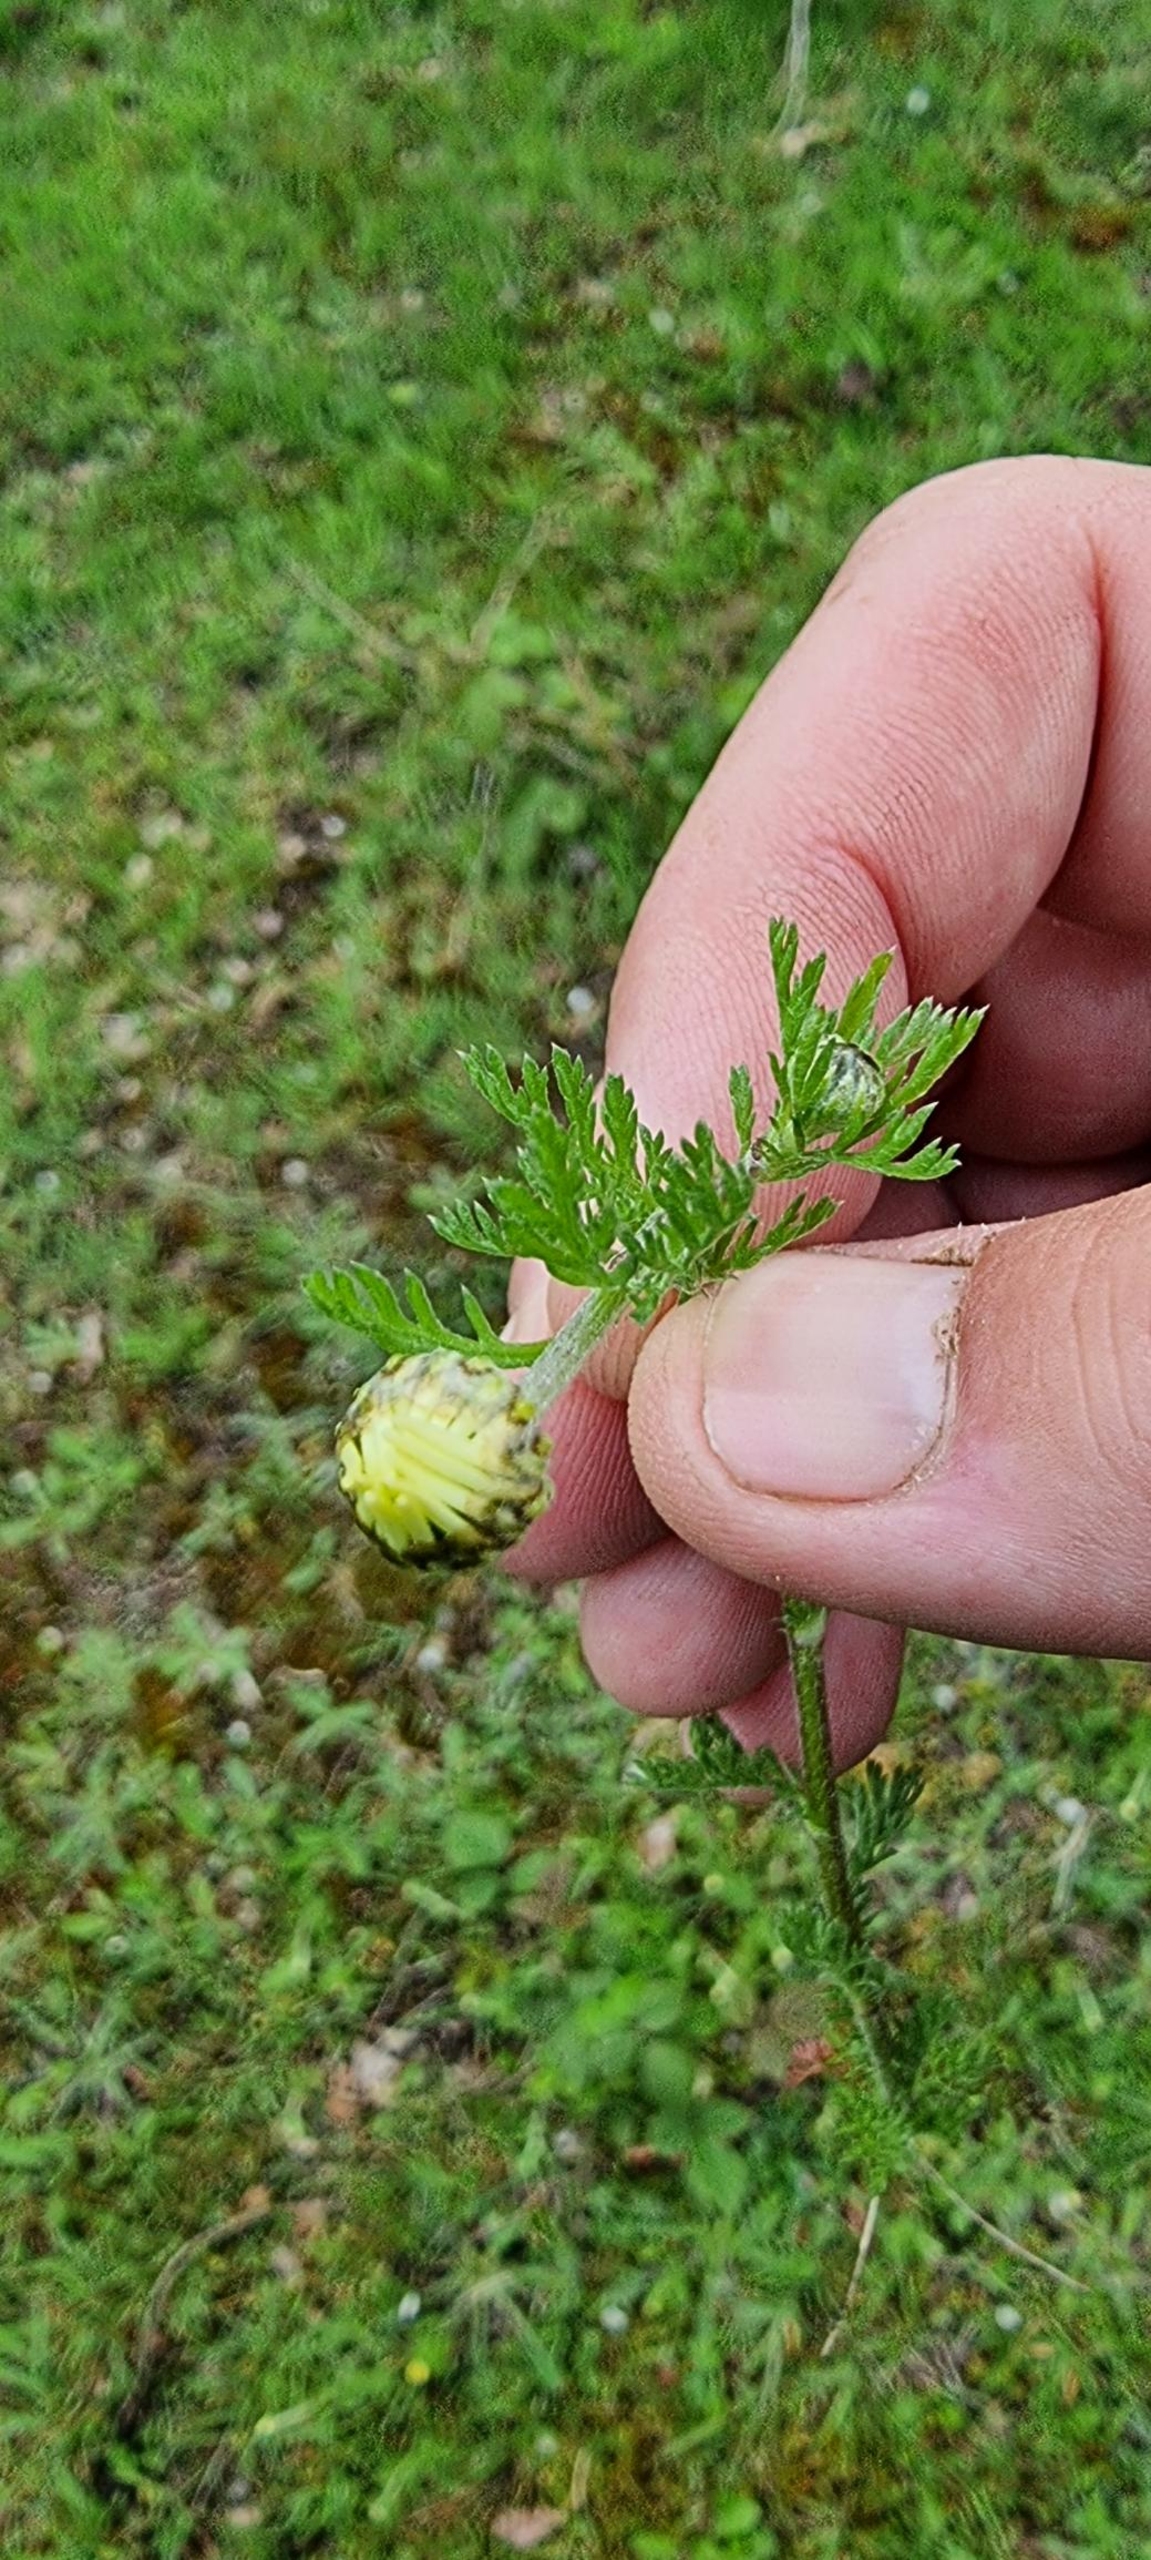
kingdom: Plantae
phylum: Tracheophyta
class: Magnoliopsida
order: Asterales
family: Asteraceae
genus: Anthemis
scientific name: Anthemis arvensis
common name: Ager-gåseurt
